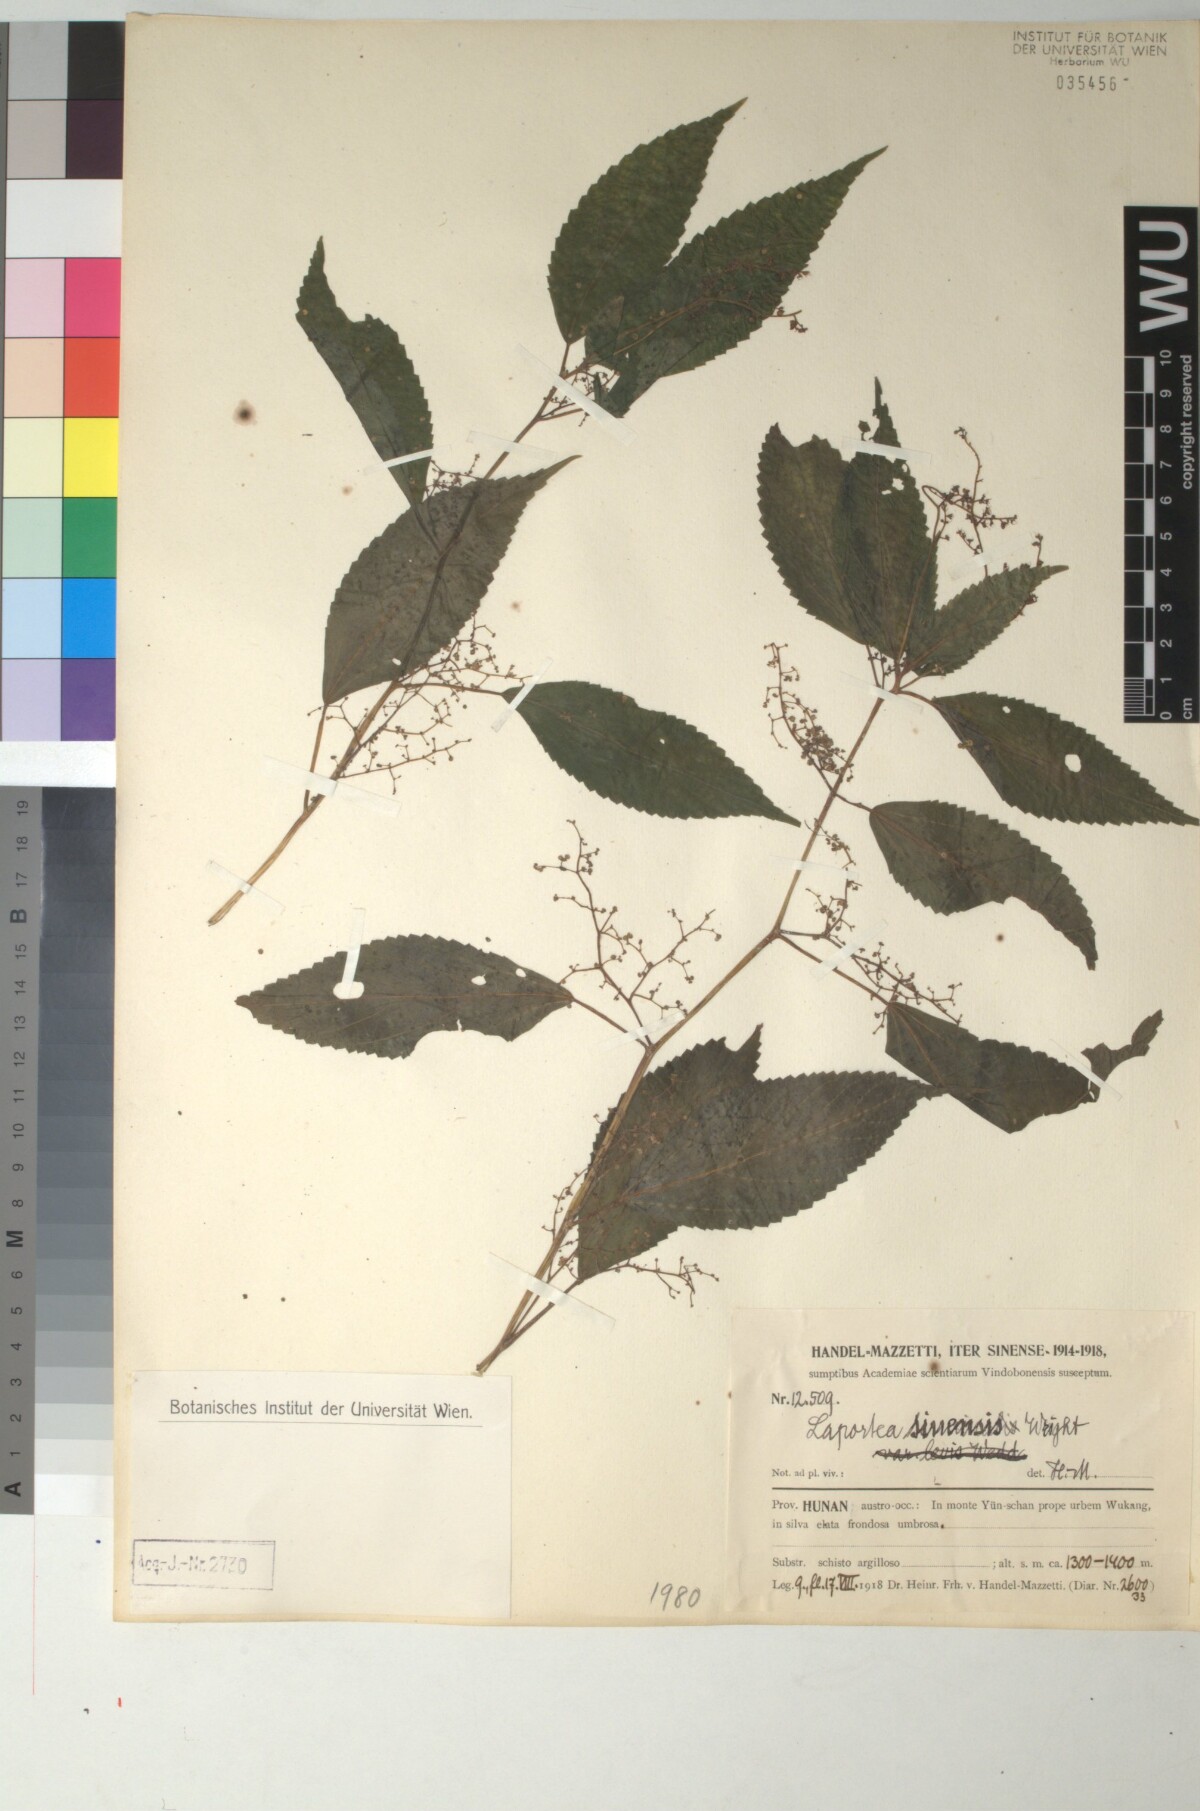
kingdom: Plantae
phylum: Tracheophyta
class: Magnoliopsida
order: Rosales
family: Urticaceae
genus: Laportea
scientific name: Laportea bulbifera
